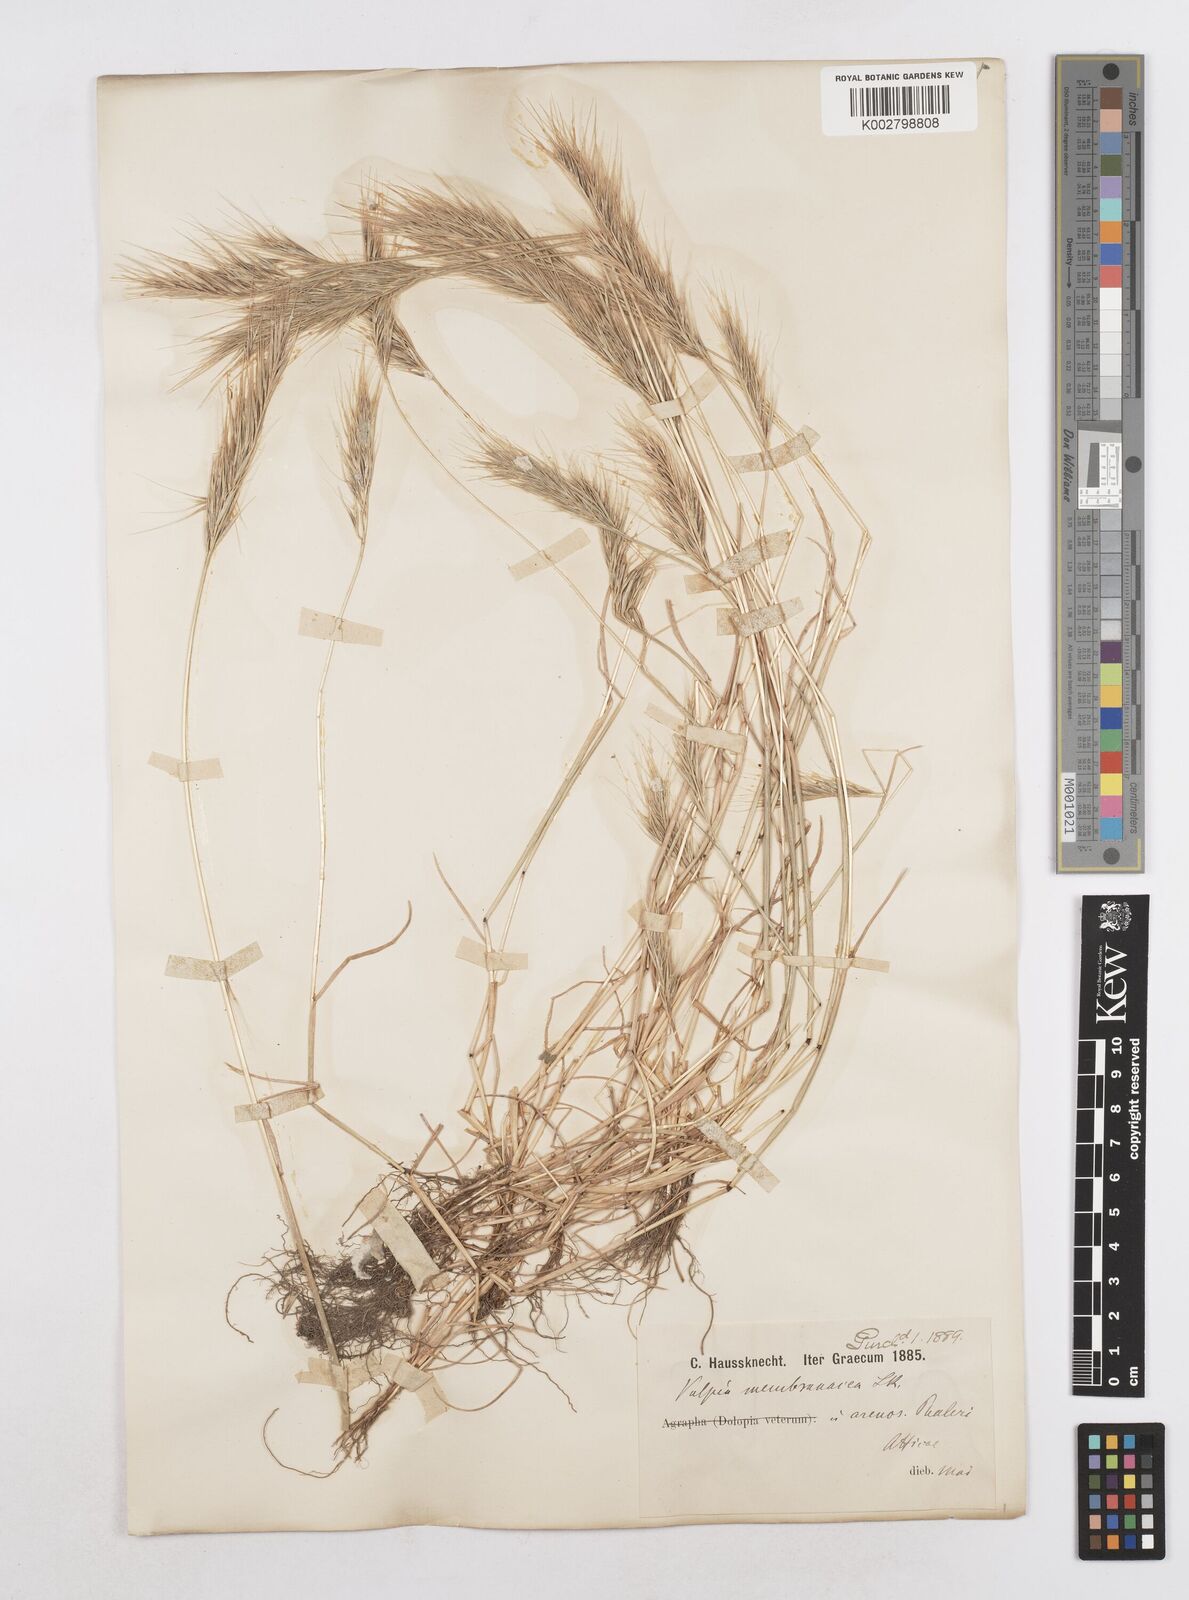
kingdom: Plantae
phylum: Tracheophyta
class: Liliopsida
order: Poales
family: Poaceae
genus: Festuca
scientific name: Festuca fasciculata
